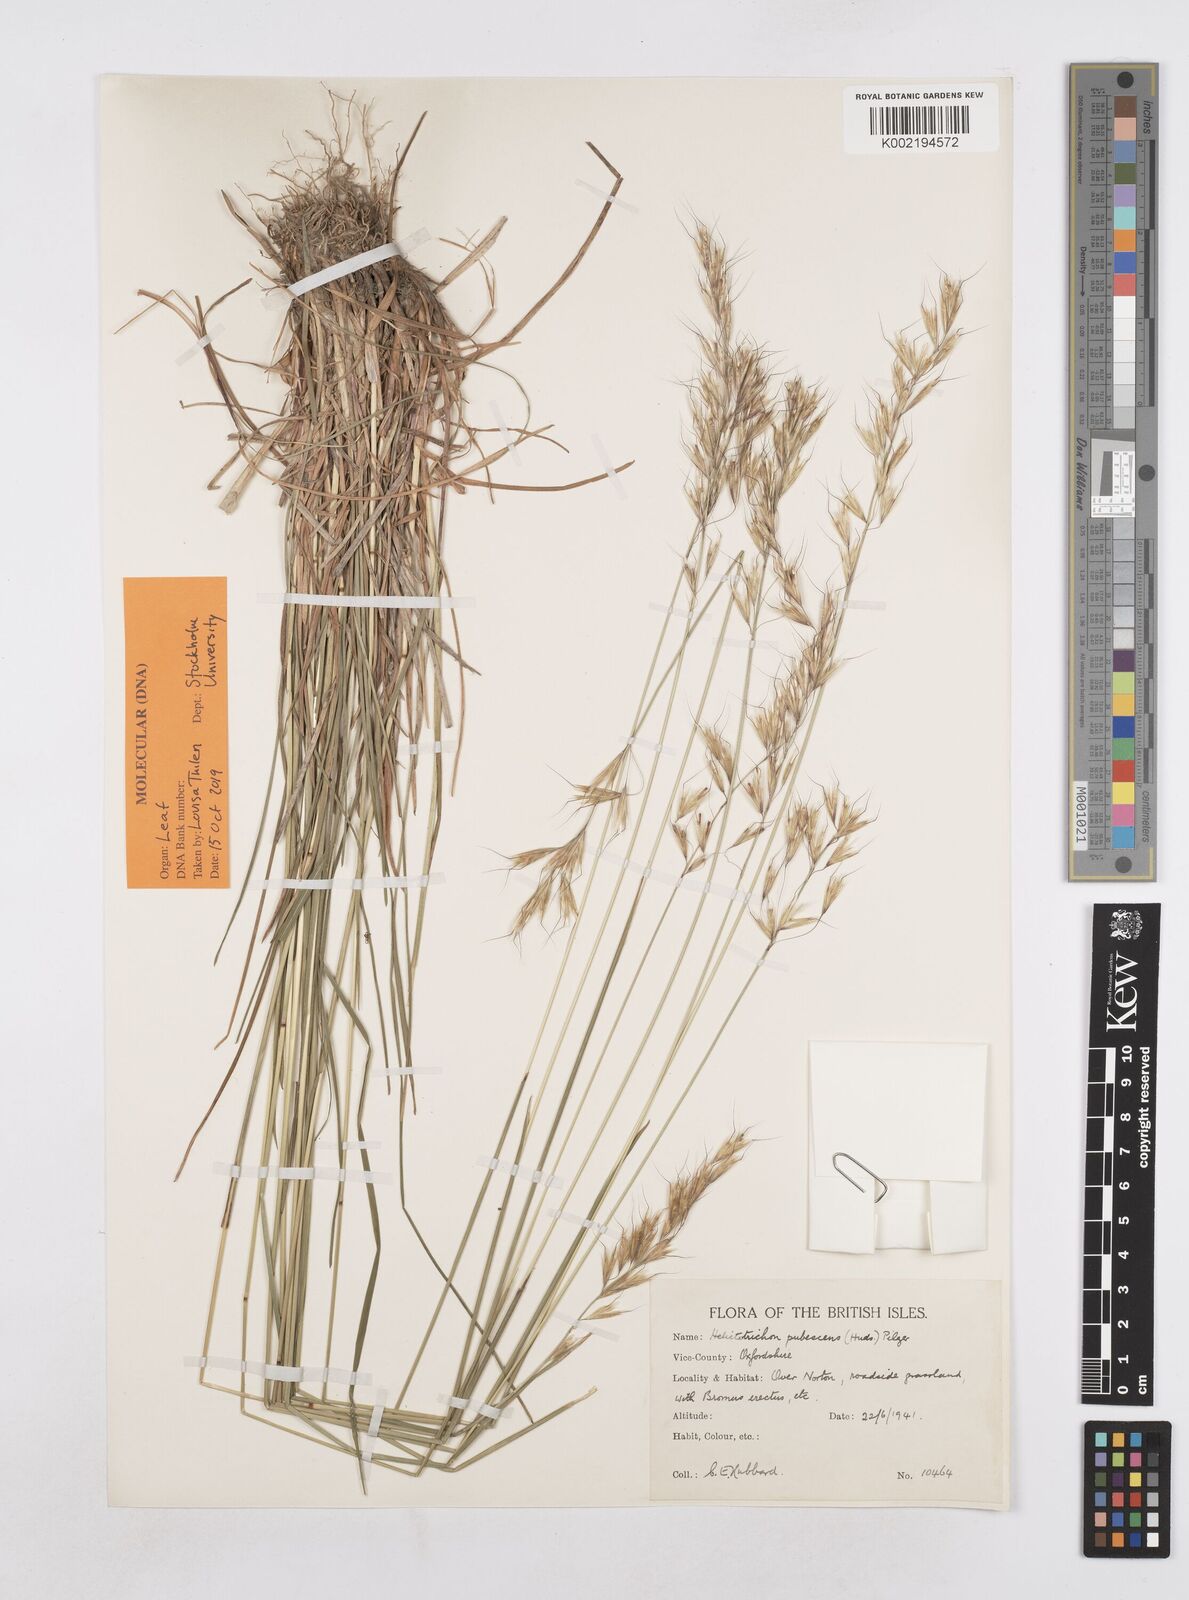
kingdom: Plantae
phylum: Tracheophyta
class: Liliopsida
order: Poales
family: Poaceae
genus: Avenula
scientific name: Avenula pubescens
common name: Downy alpine oatgrass
